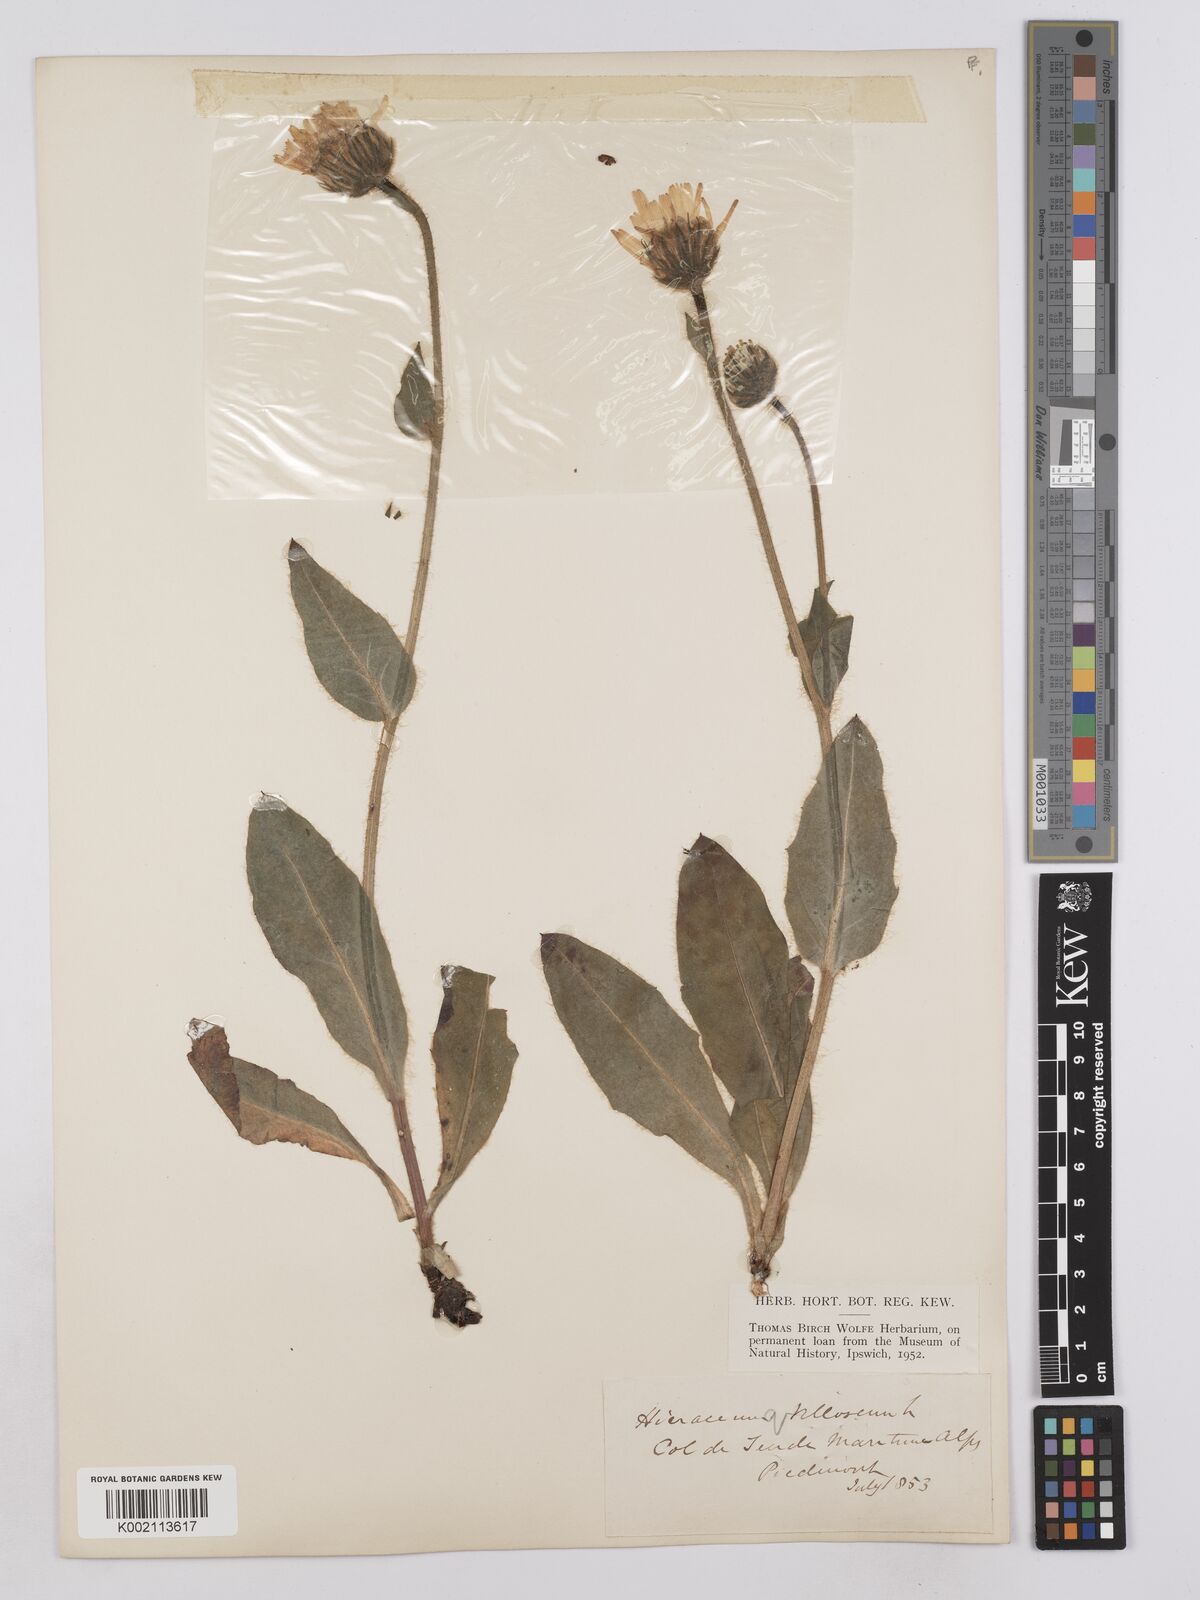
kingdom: Plantae
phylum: Tracheophyta
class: Magnoliopsida
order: Asterales
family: Asteraceae
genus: Hieracium
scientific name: Hieracium villosum
